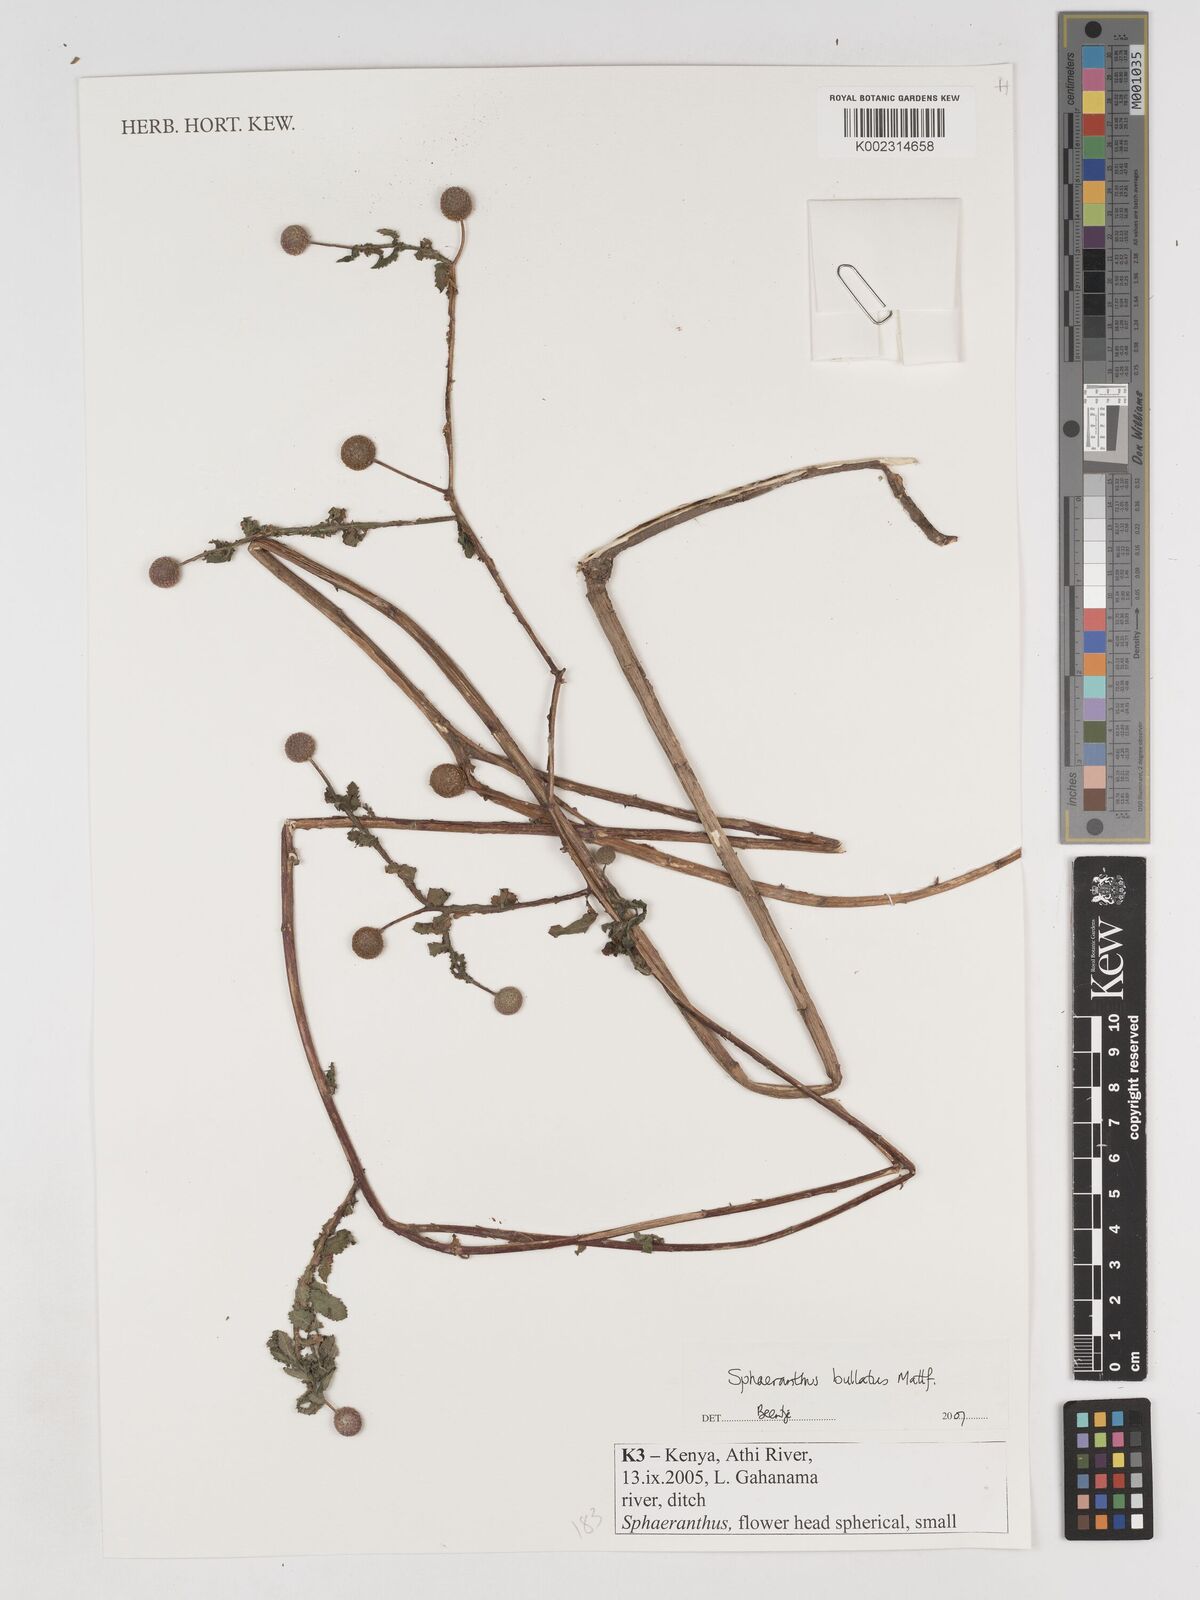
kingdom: Plantae
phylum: Tracheophyta
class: Magnoliopsida
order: Asterales
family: Asteraceae
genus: Sphaeranthus
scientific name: Sphaeranthus bullatus
